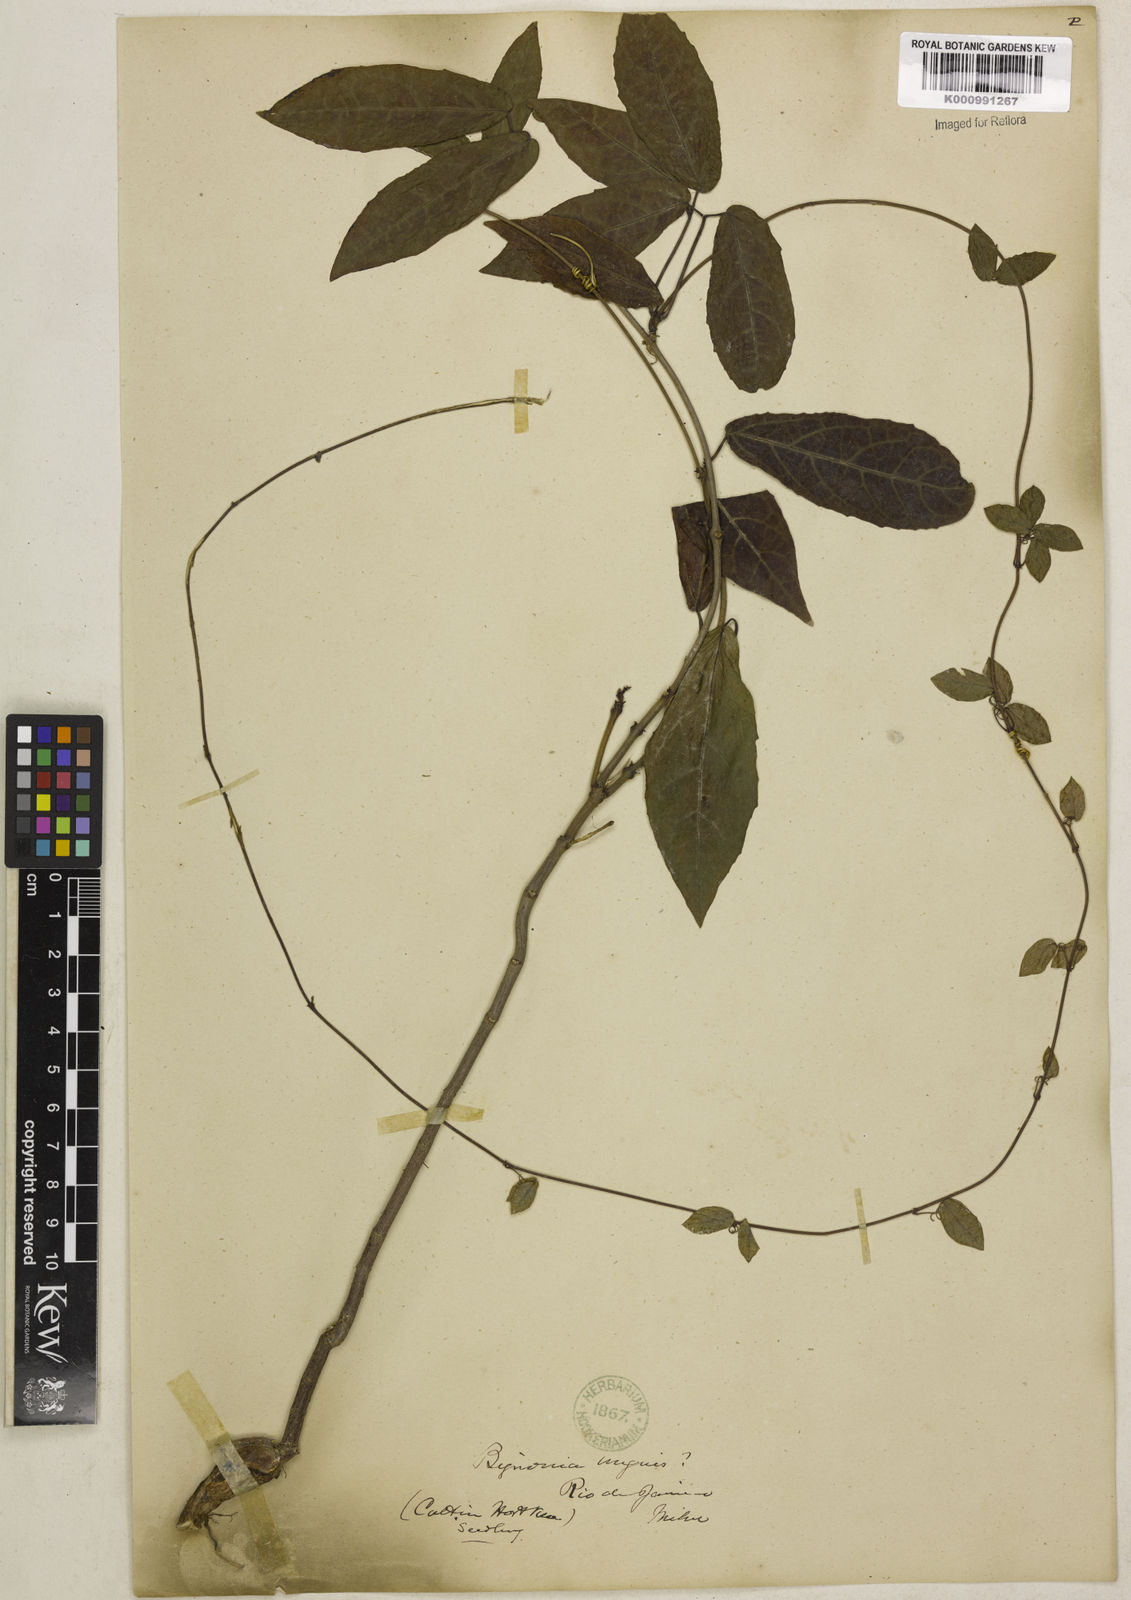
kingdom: Plantae
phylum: Tracheophyta
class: Magnoliopsida
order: Lamiales
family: Bignoniaceae
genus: Dolichandra
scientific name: Dolichandra unguis-cati
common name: Catclaw vine
